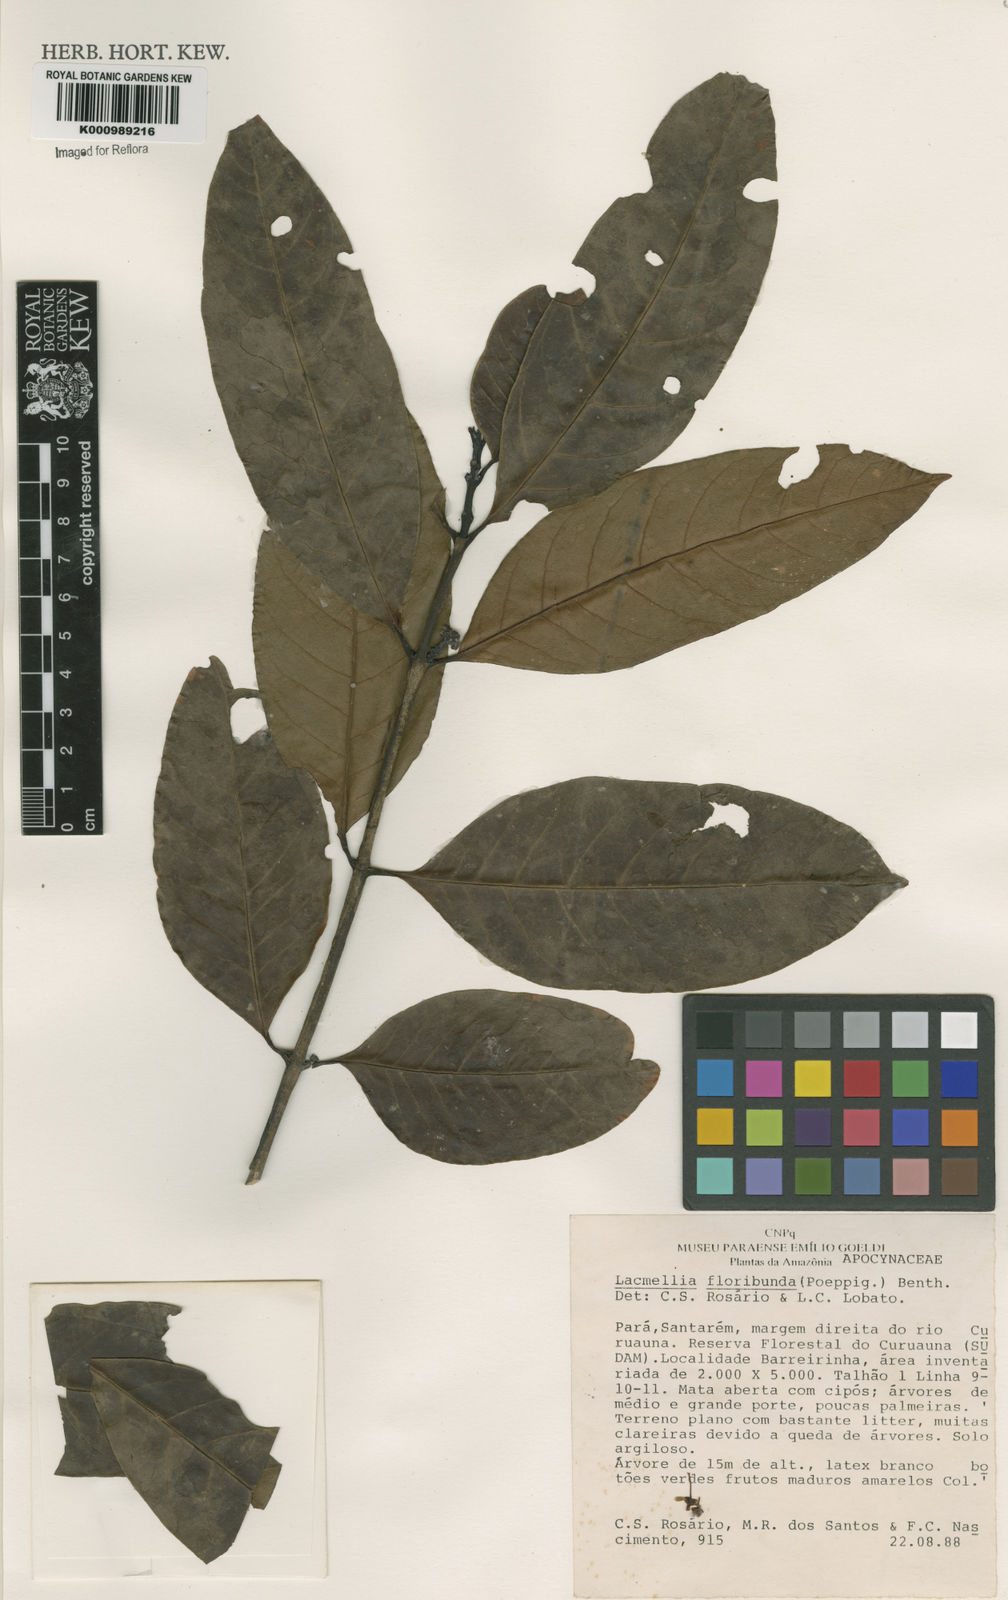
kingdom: Plantae
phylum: Tracheophyta
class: Magnoliopsida
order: Gentianales
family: Apocynaceae
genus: Lacmellea
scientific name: Lacmellea floribunda
